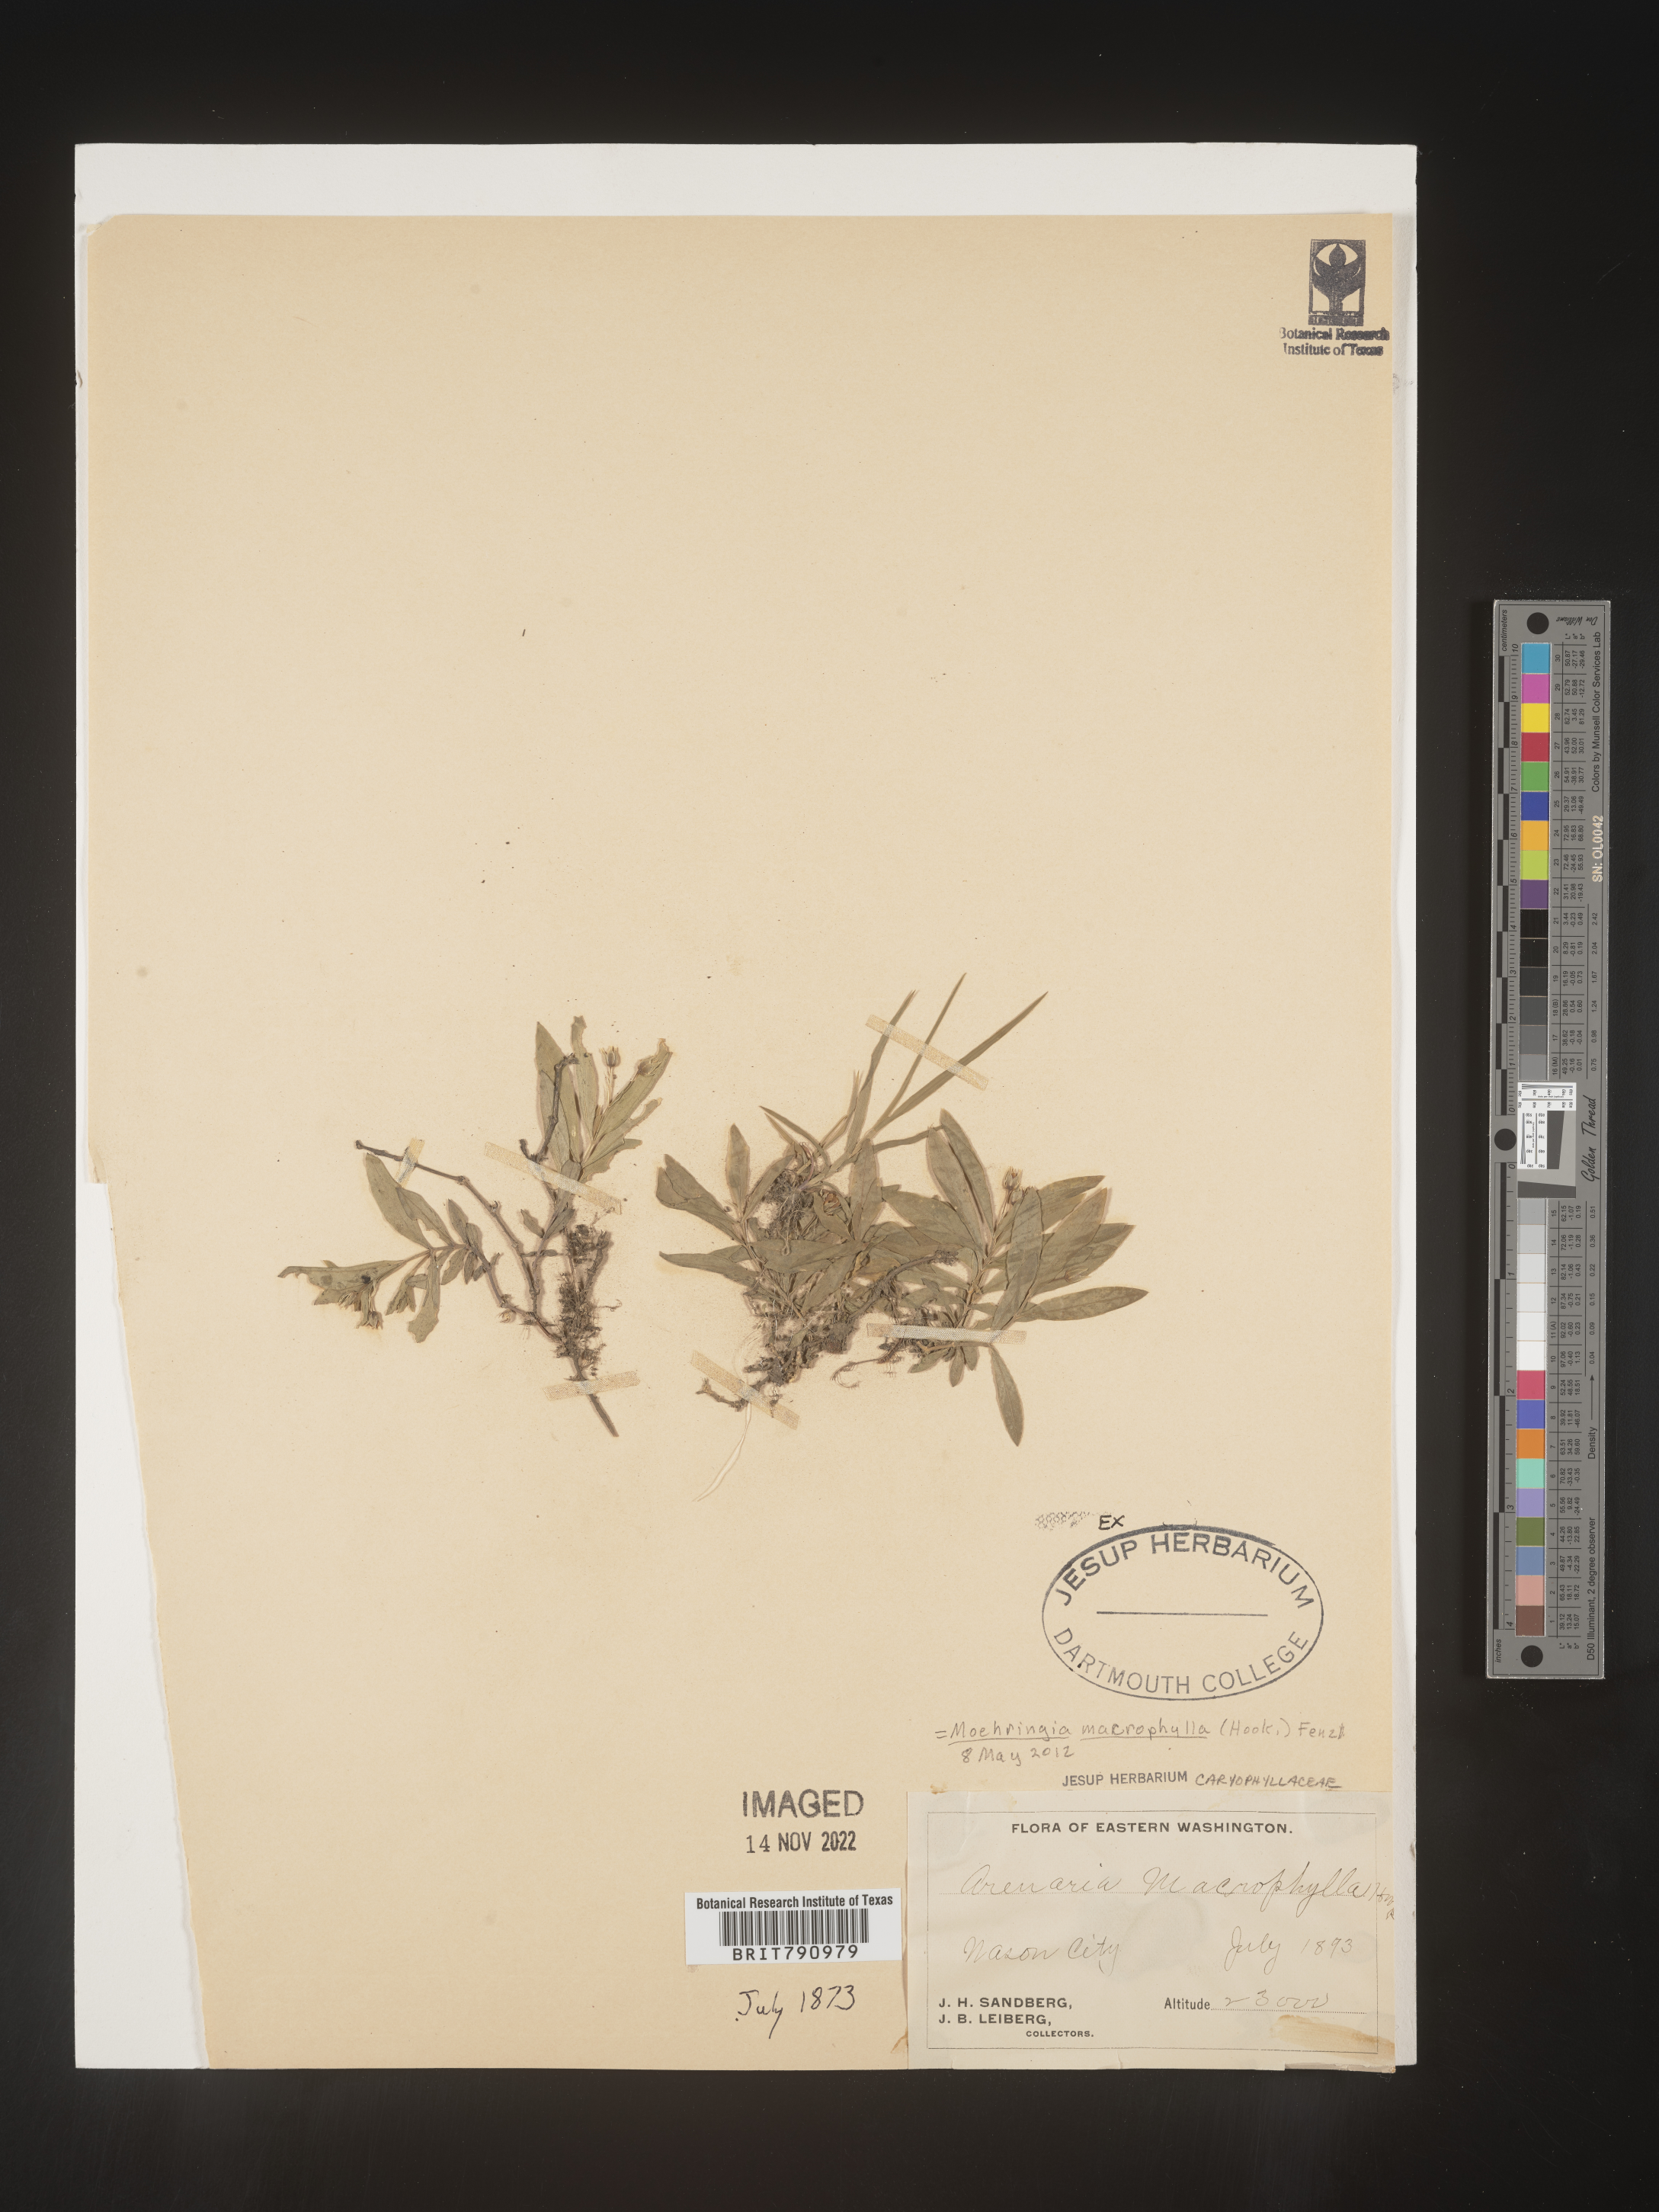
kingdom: Plantae
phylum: Tracheophyta
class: Magnoliopsida
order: Caryophyllales
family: Caryophyllaceae
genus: Moehringia
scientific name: Moehringia
